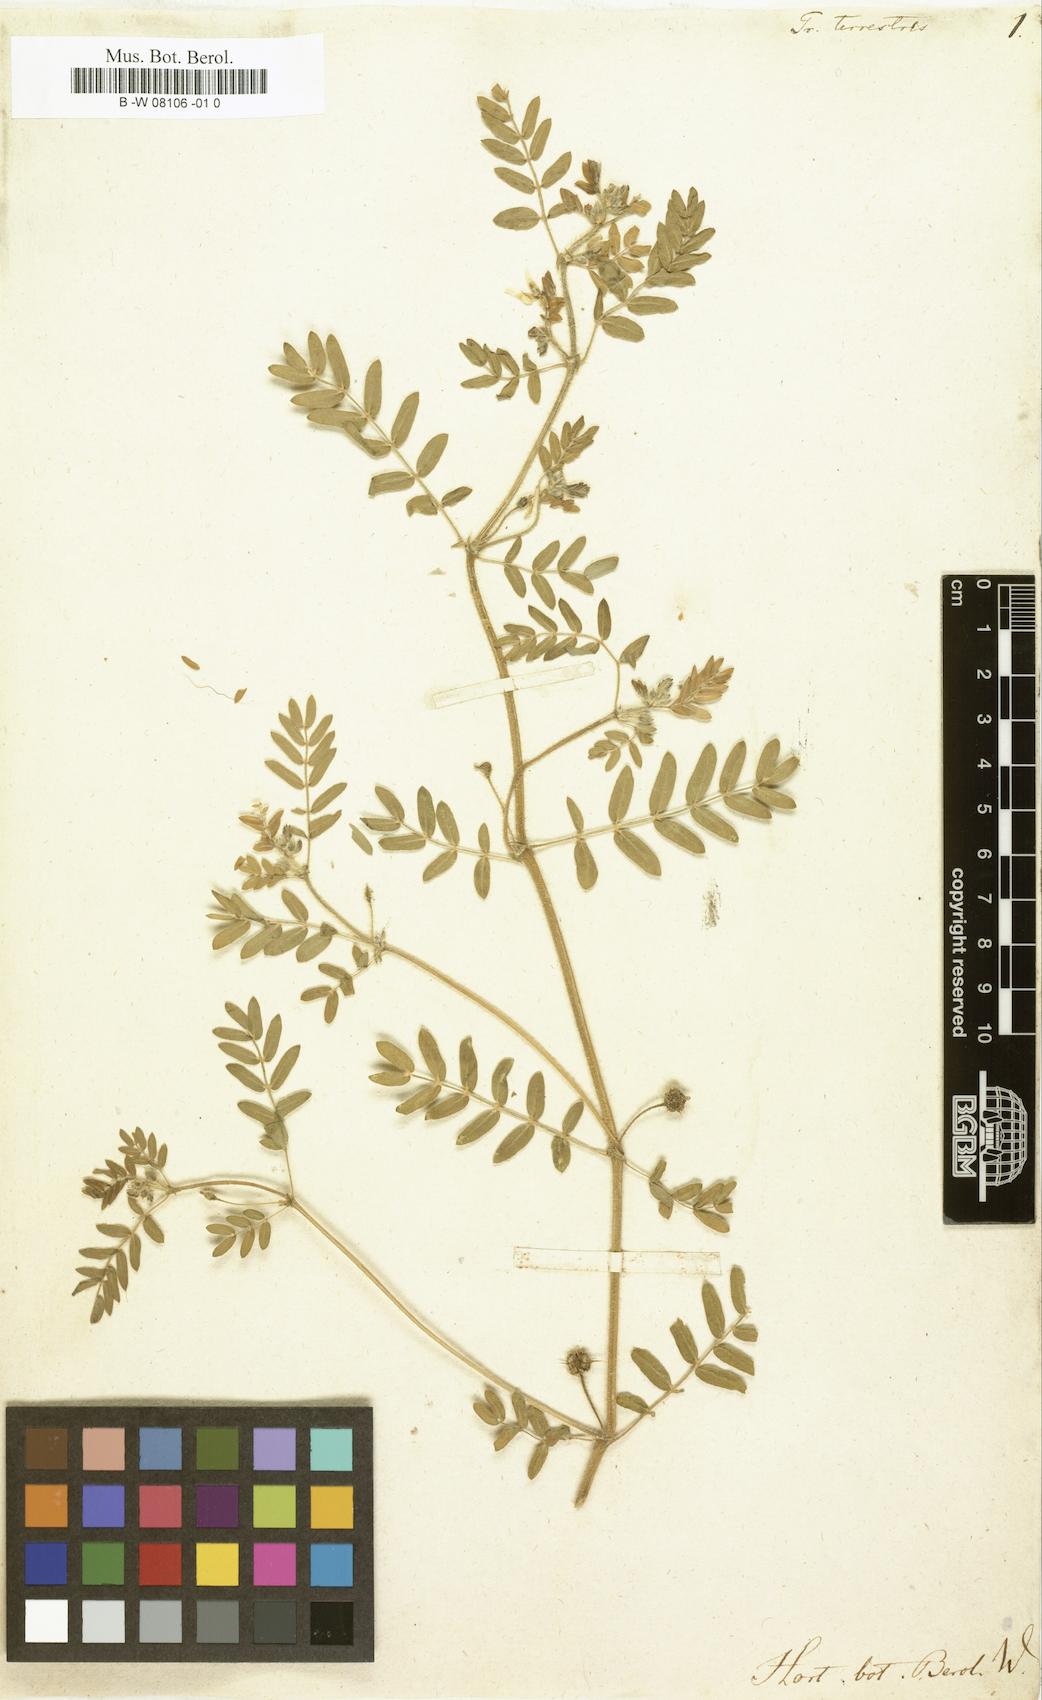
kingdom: Plantae
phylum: Tracheophyta
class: Magnoliopsida
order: Zygophyllales
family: Zygophyllaceae
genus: Tribulus
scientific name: Tribulus terrestris
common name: Puncturevine
